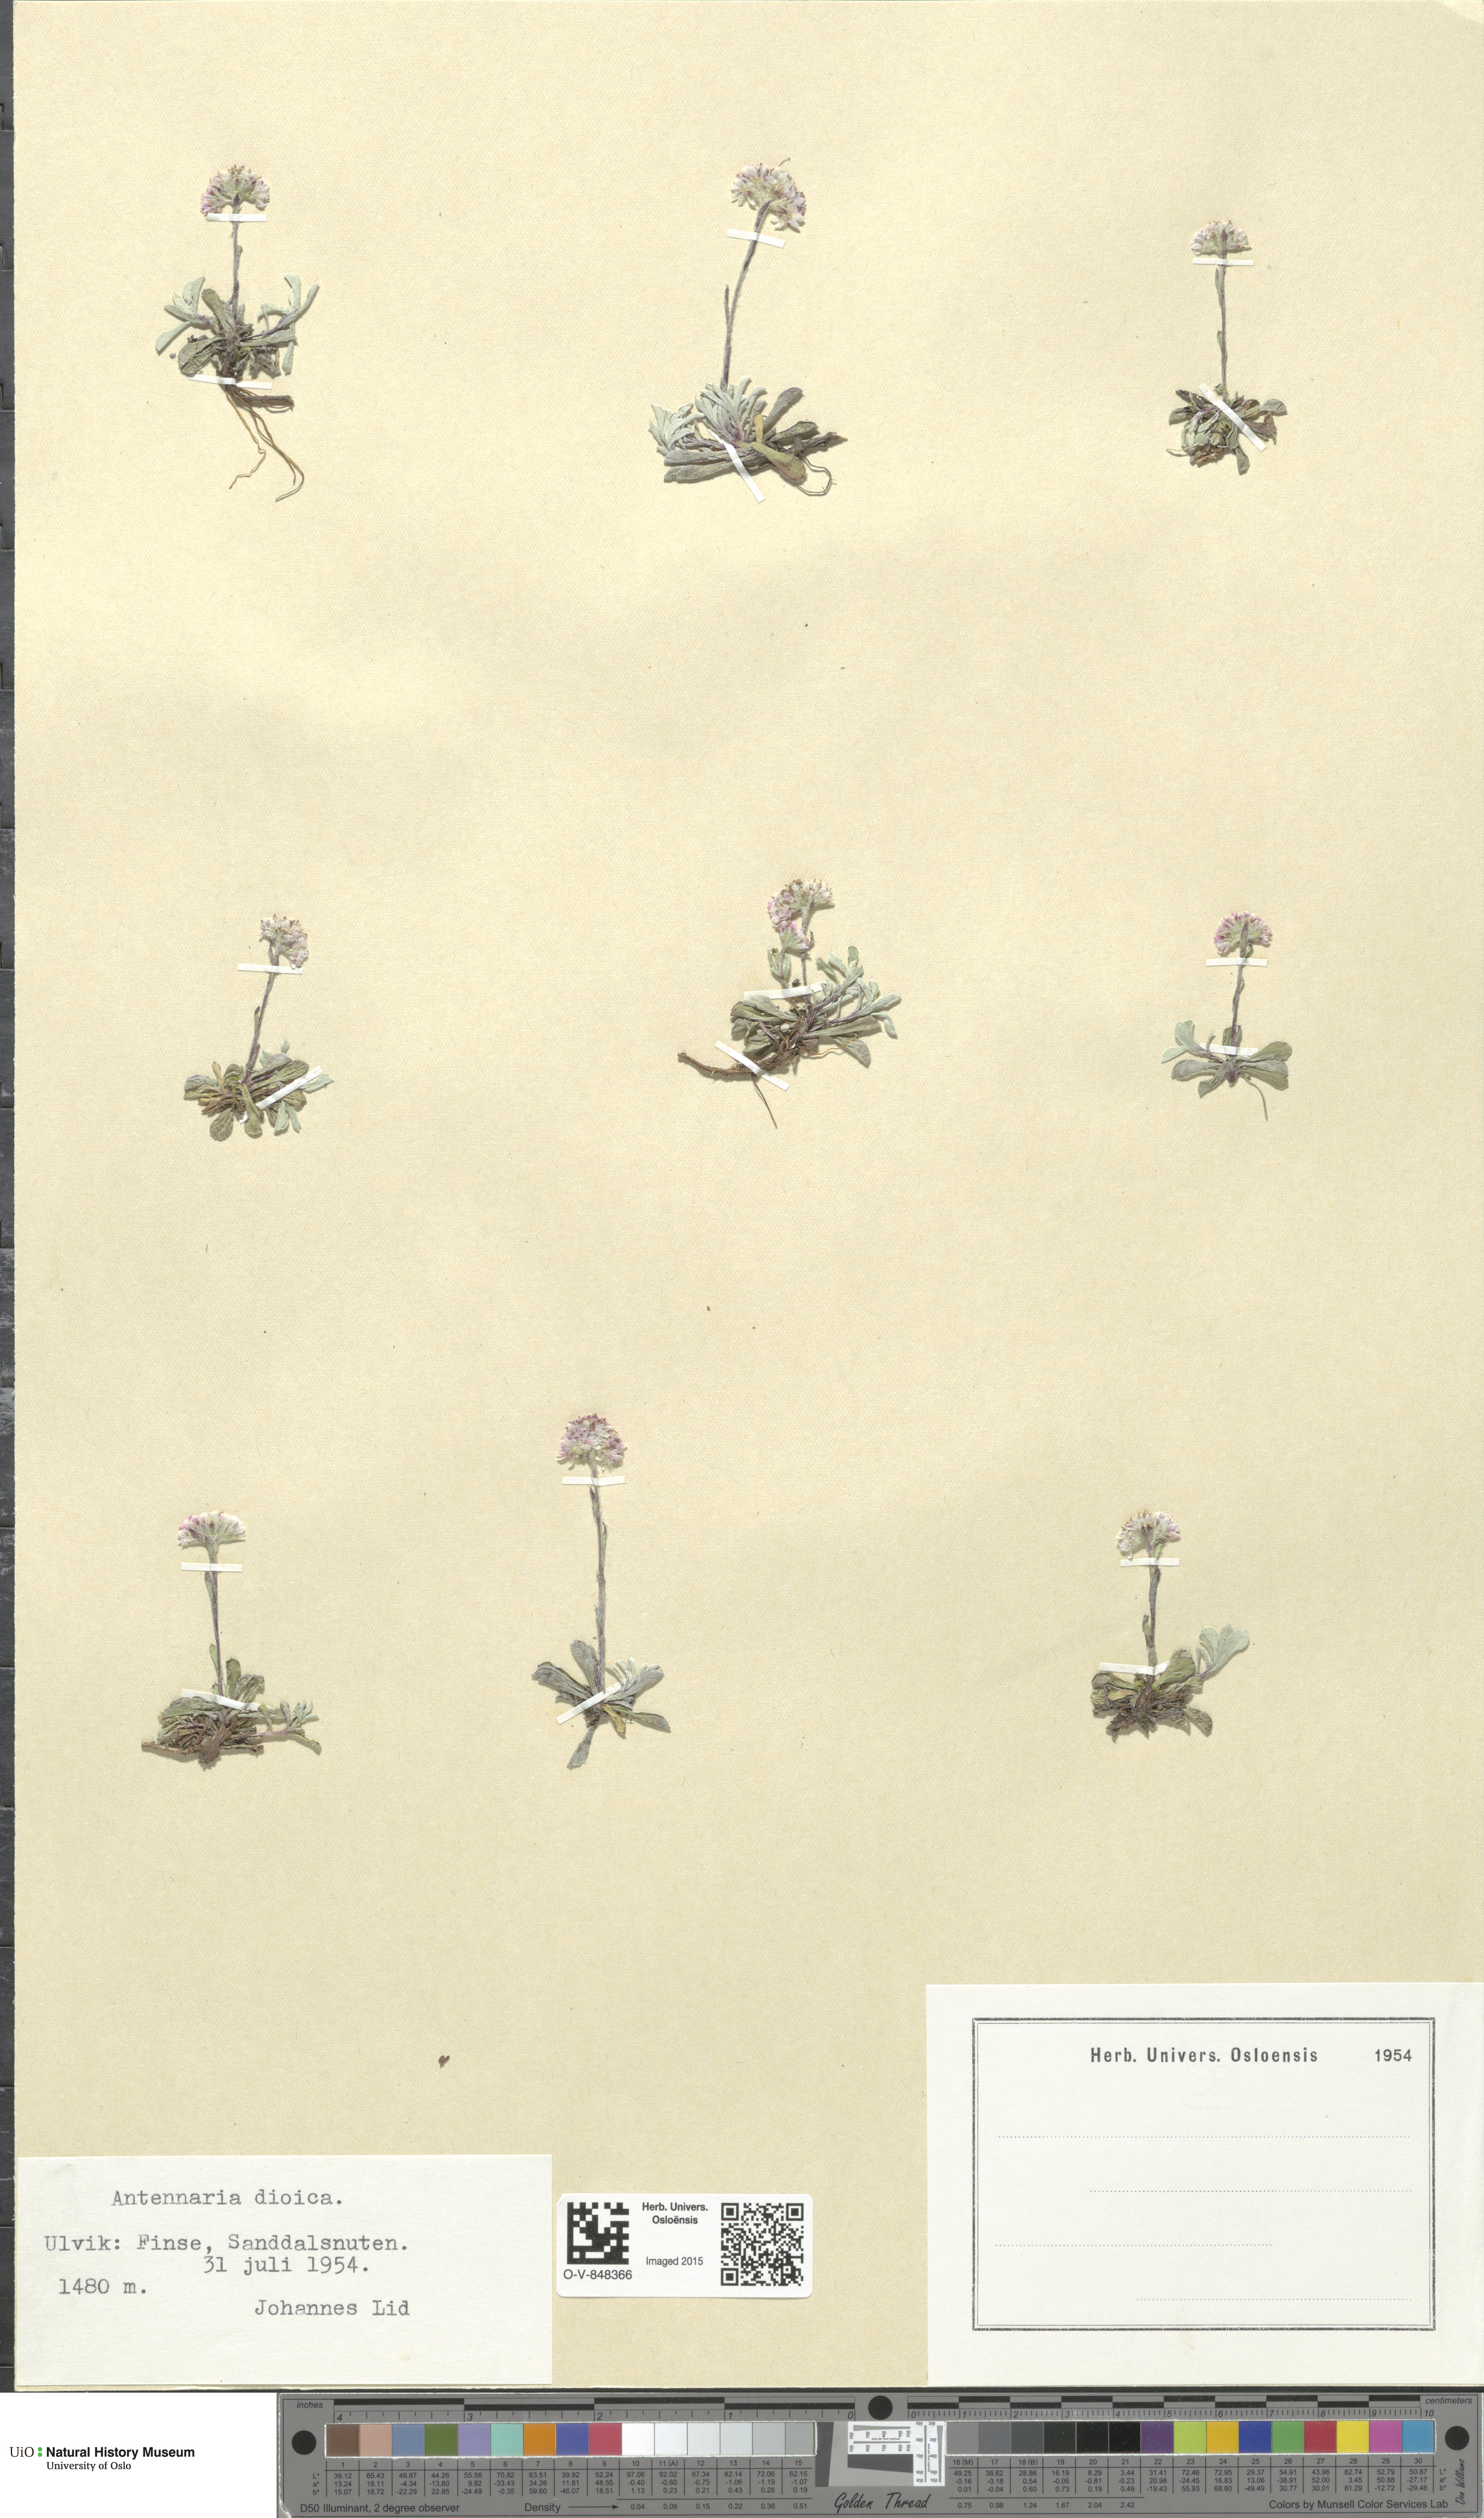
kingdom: Plantae
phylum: Tracheophyta
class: Magnoliopsida
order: Asterales
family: Asteraceae
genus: Antennaria
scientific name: Antennaria dioica
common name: Mountain everlasting
